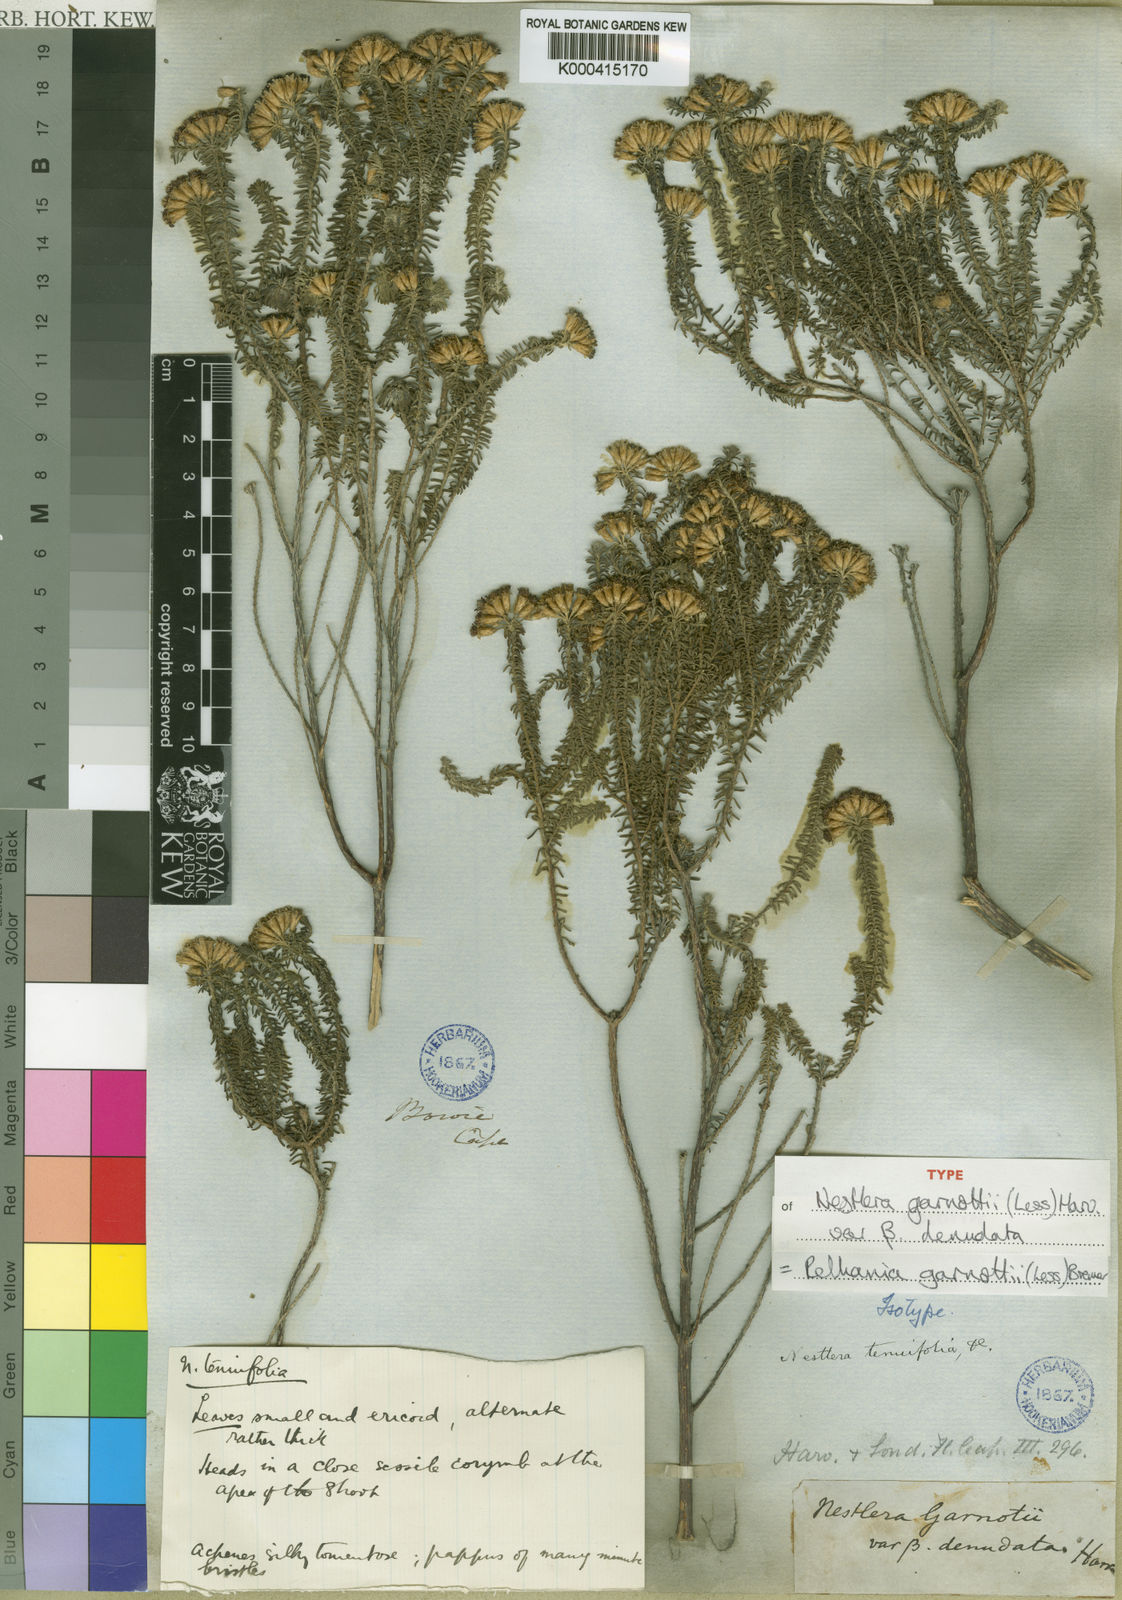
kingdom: Plantae
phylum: Tracheophyta
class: Magnoliopsida
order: Asterales
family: Asteraceae
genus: Oedera
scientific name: Oedera garnotii
